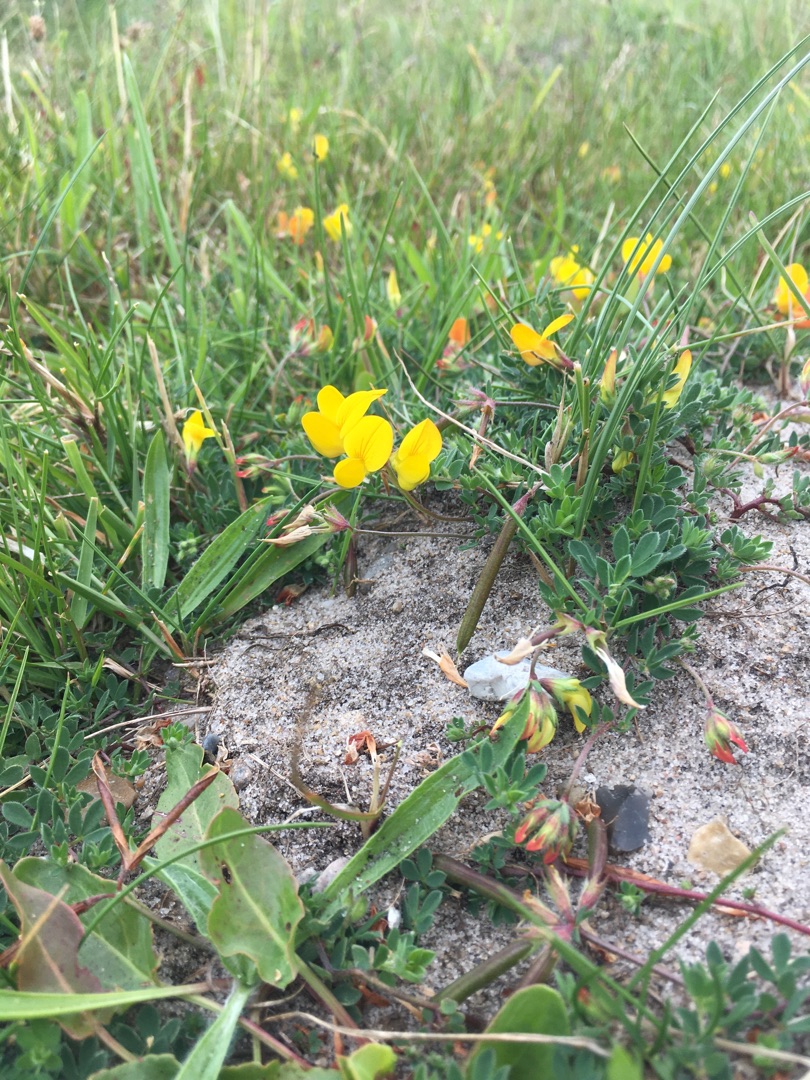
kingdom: Plantae
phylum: Tracheophyta
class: Magnoliopsida
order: Fabales
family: Fabaceae
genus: Lotus
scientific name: Lotus corniculatus
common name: Almindelig kællingetand
